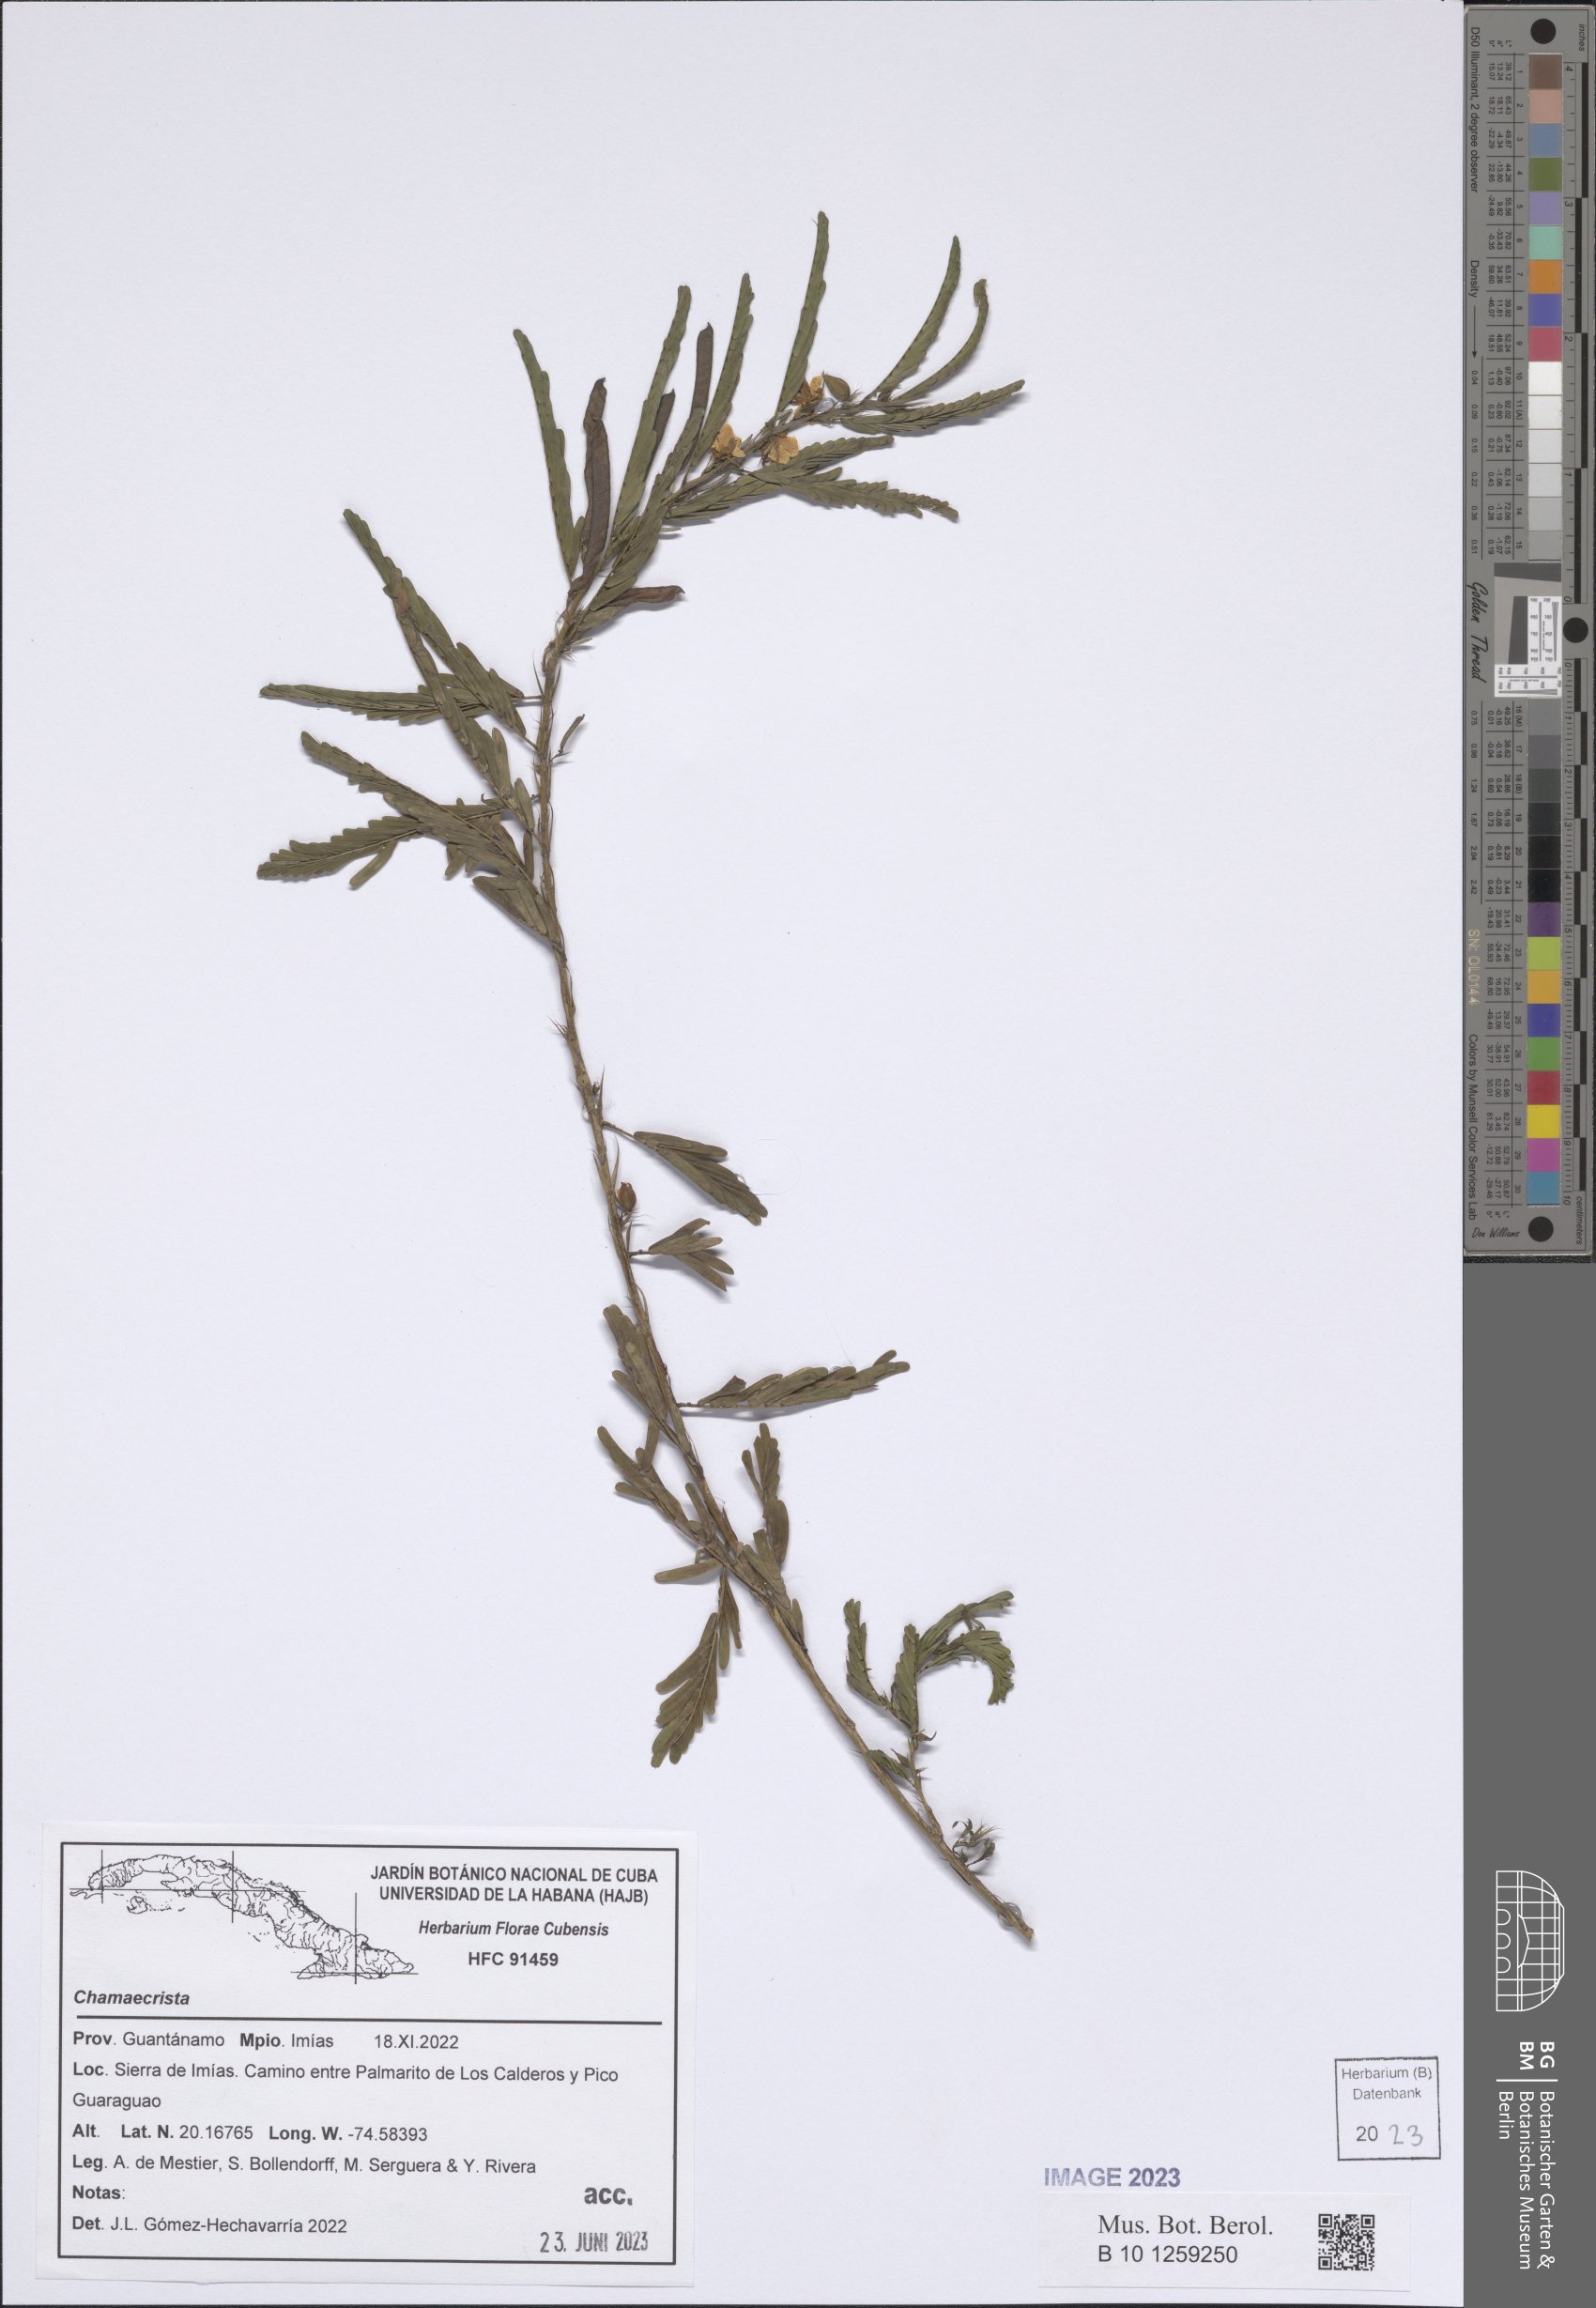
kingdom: Plantae
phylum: Tracheophyta
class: Magnoliopsida
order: Fabales
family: Fabaceae
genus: Chamaecrista
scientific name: Chamaecrista
